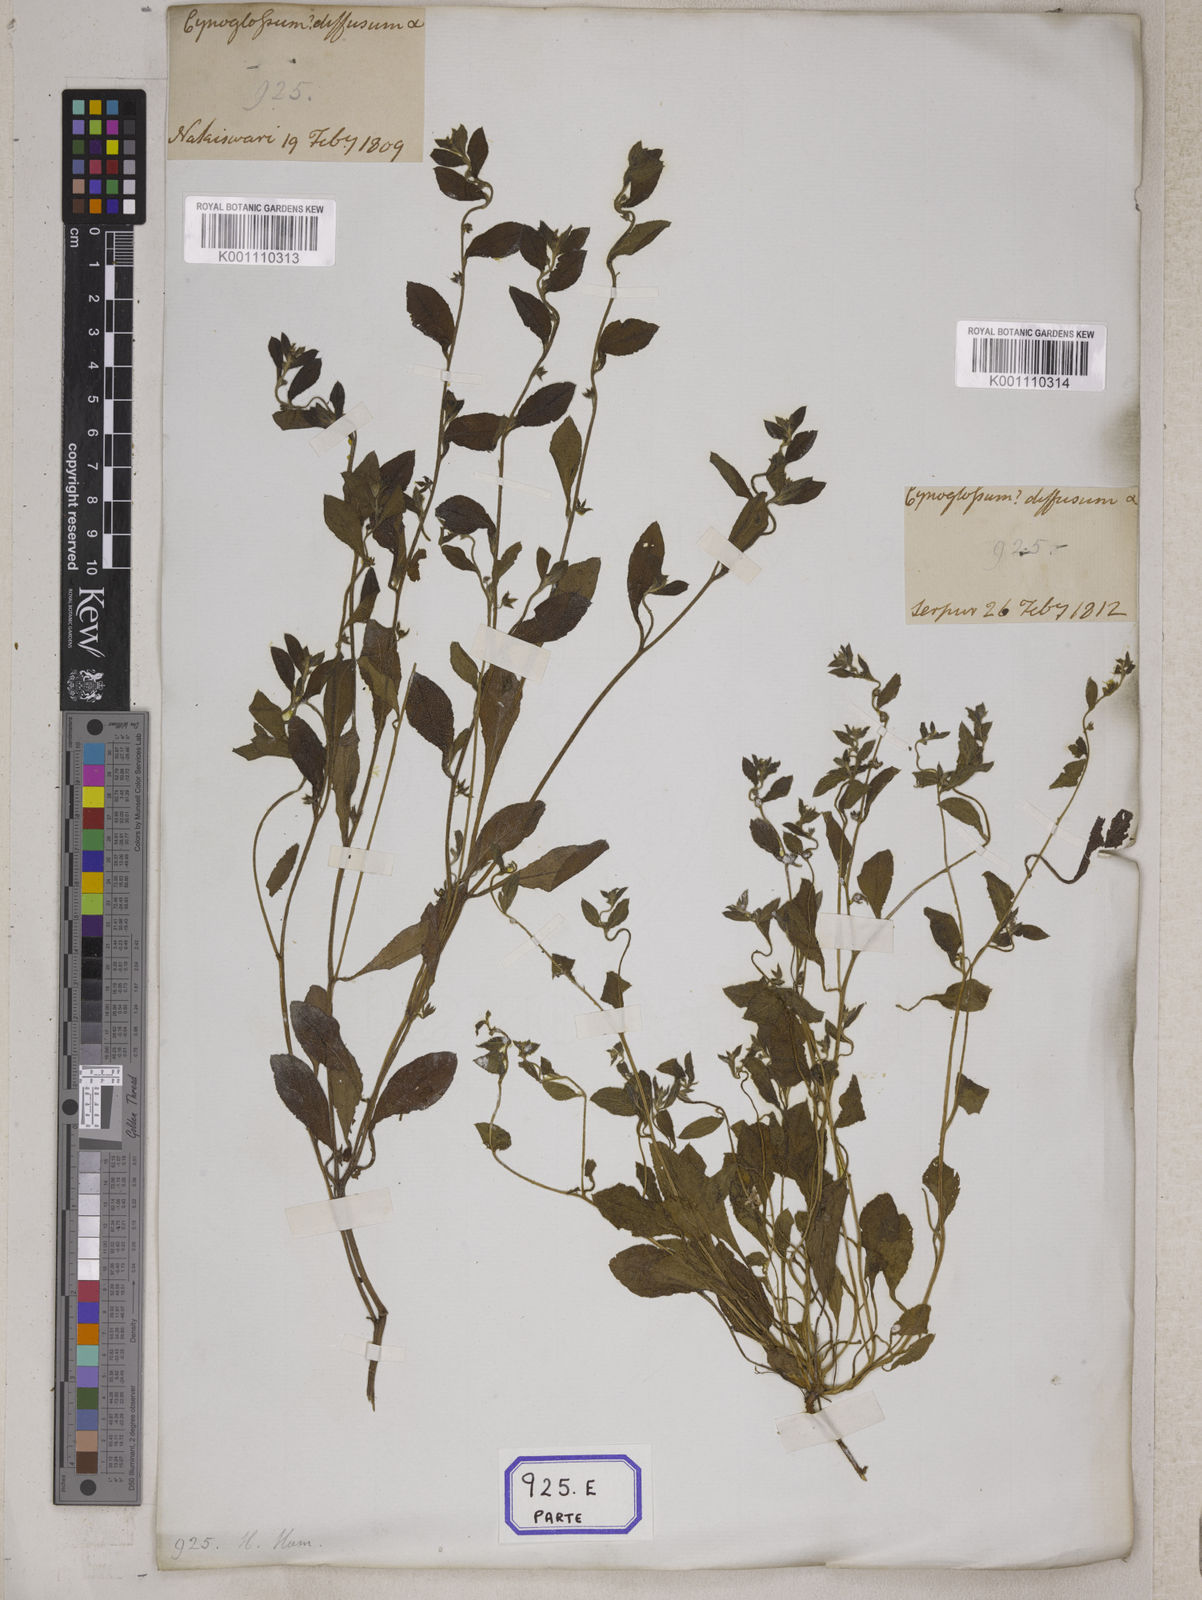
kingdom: Plantae
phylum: Tracheophyta
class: Magnoliopsida
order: Boraginales
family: Boraginaceae
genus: Cynoglossum
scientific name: Cynoglossum
